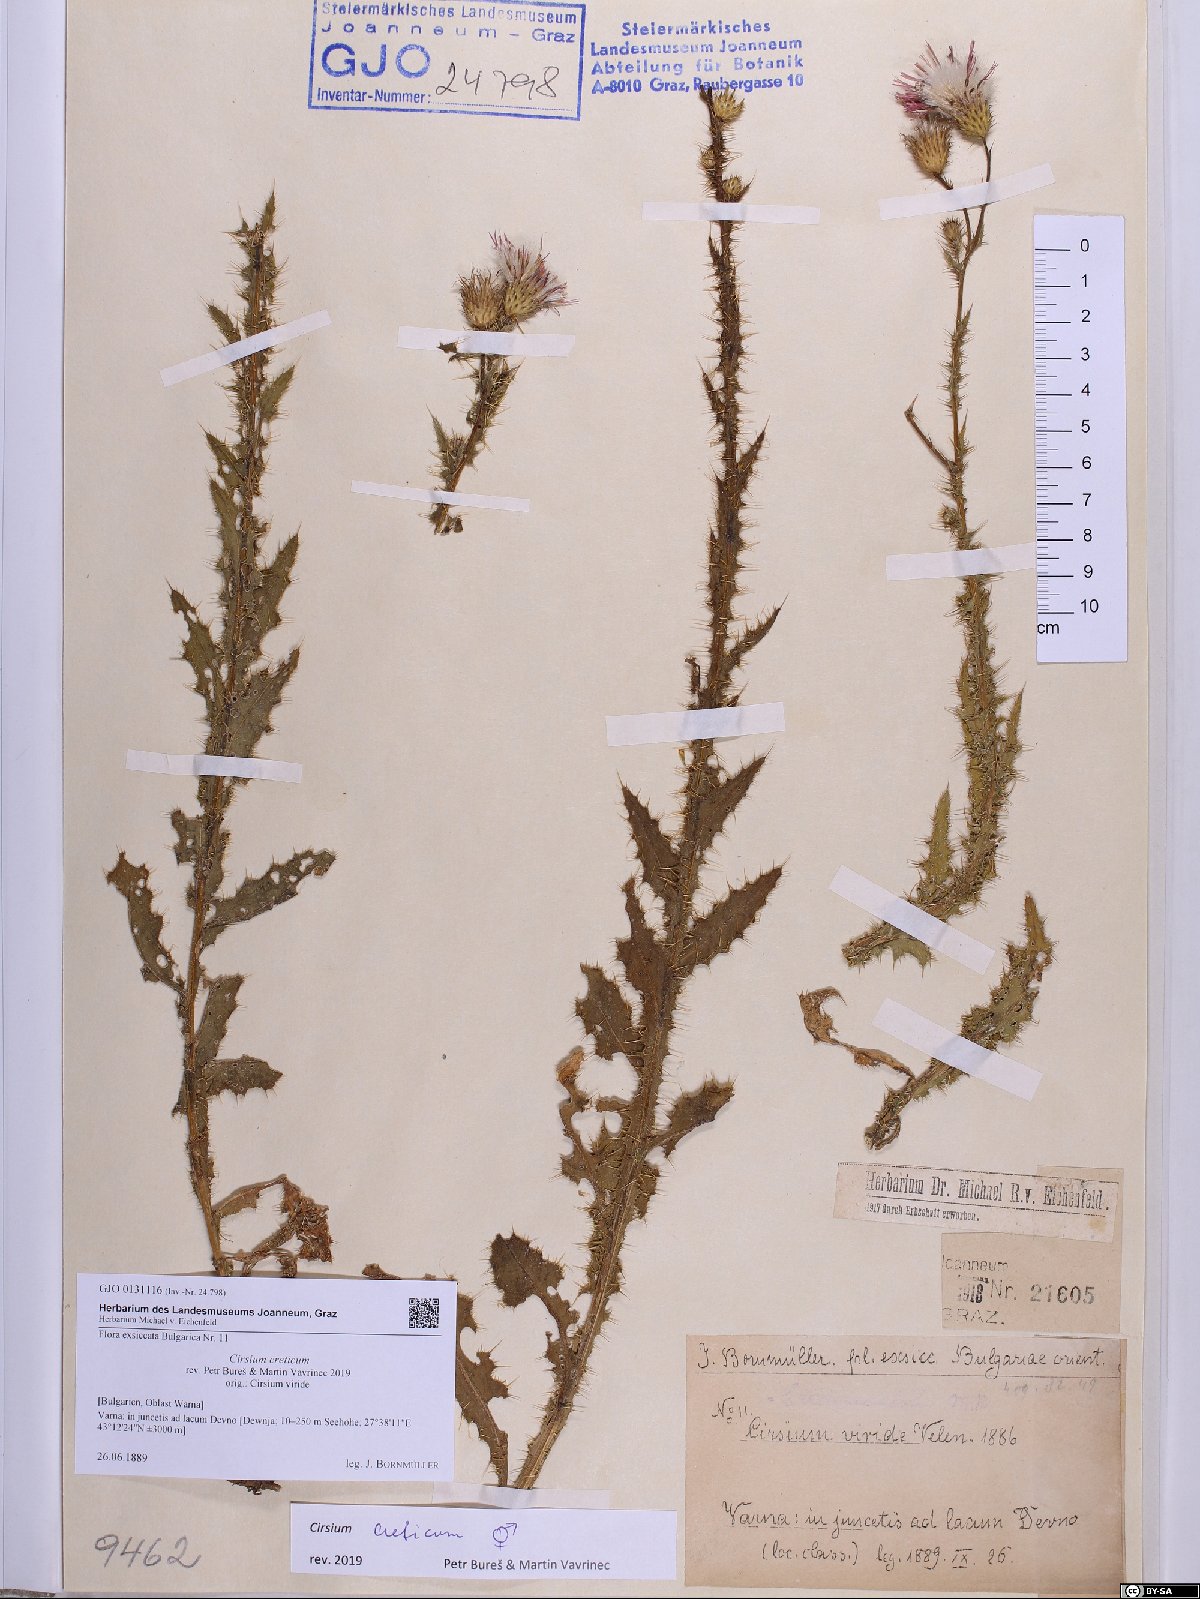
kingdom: Plantae
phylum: Tracheophyta
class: Magnoliopsida
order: Asterales
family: Asteraceae
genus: Cirsium
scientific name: Cirsium creticum
